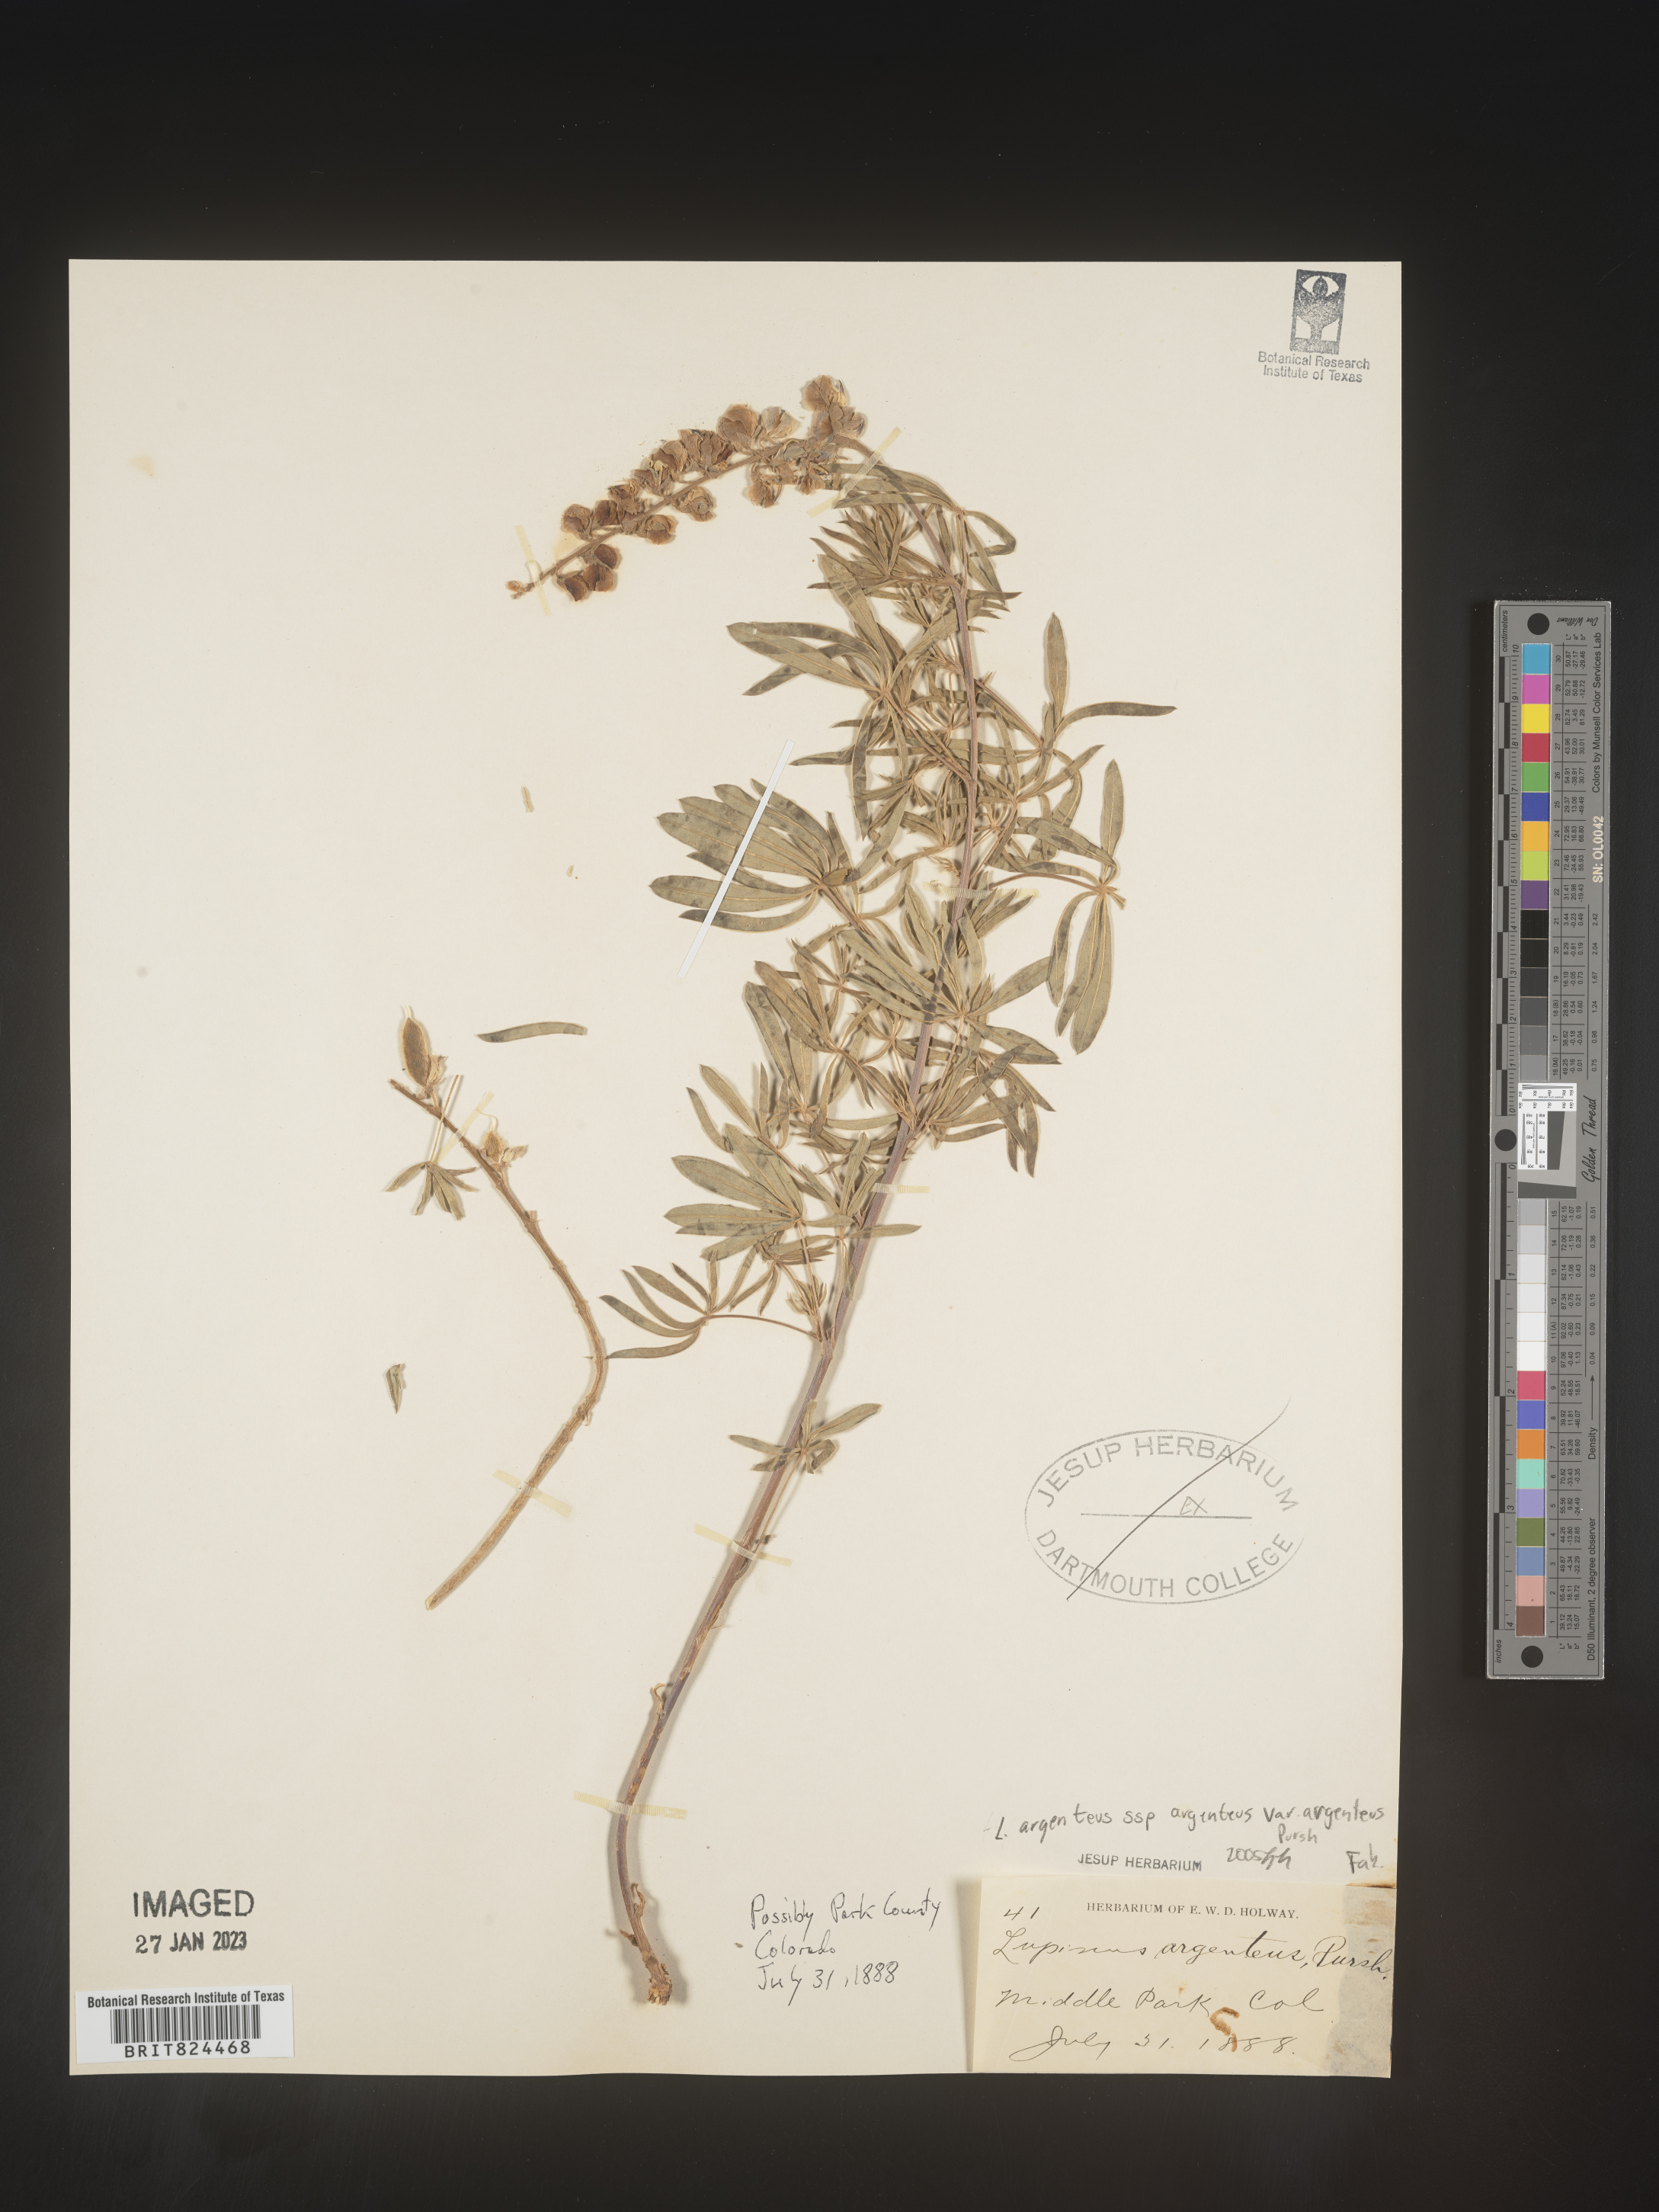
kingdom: Plantae
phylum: Tracheophyta
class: Magnoliopsida
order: Fabales
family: Fabaceae
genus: Lupinus
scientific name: Lupinus argenteus
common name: Silvery lupine
